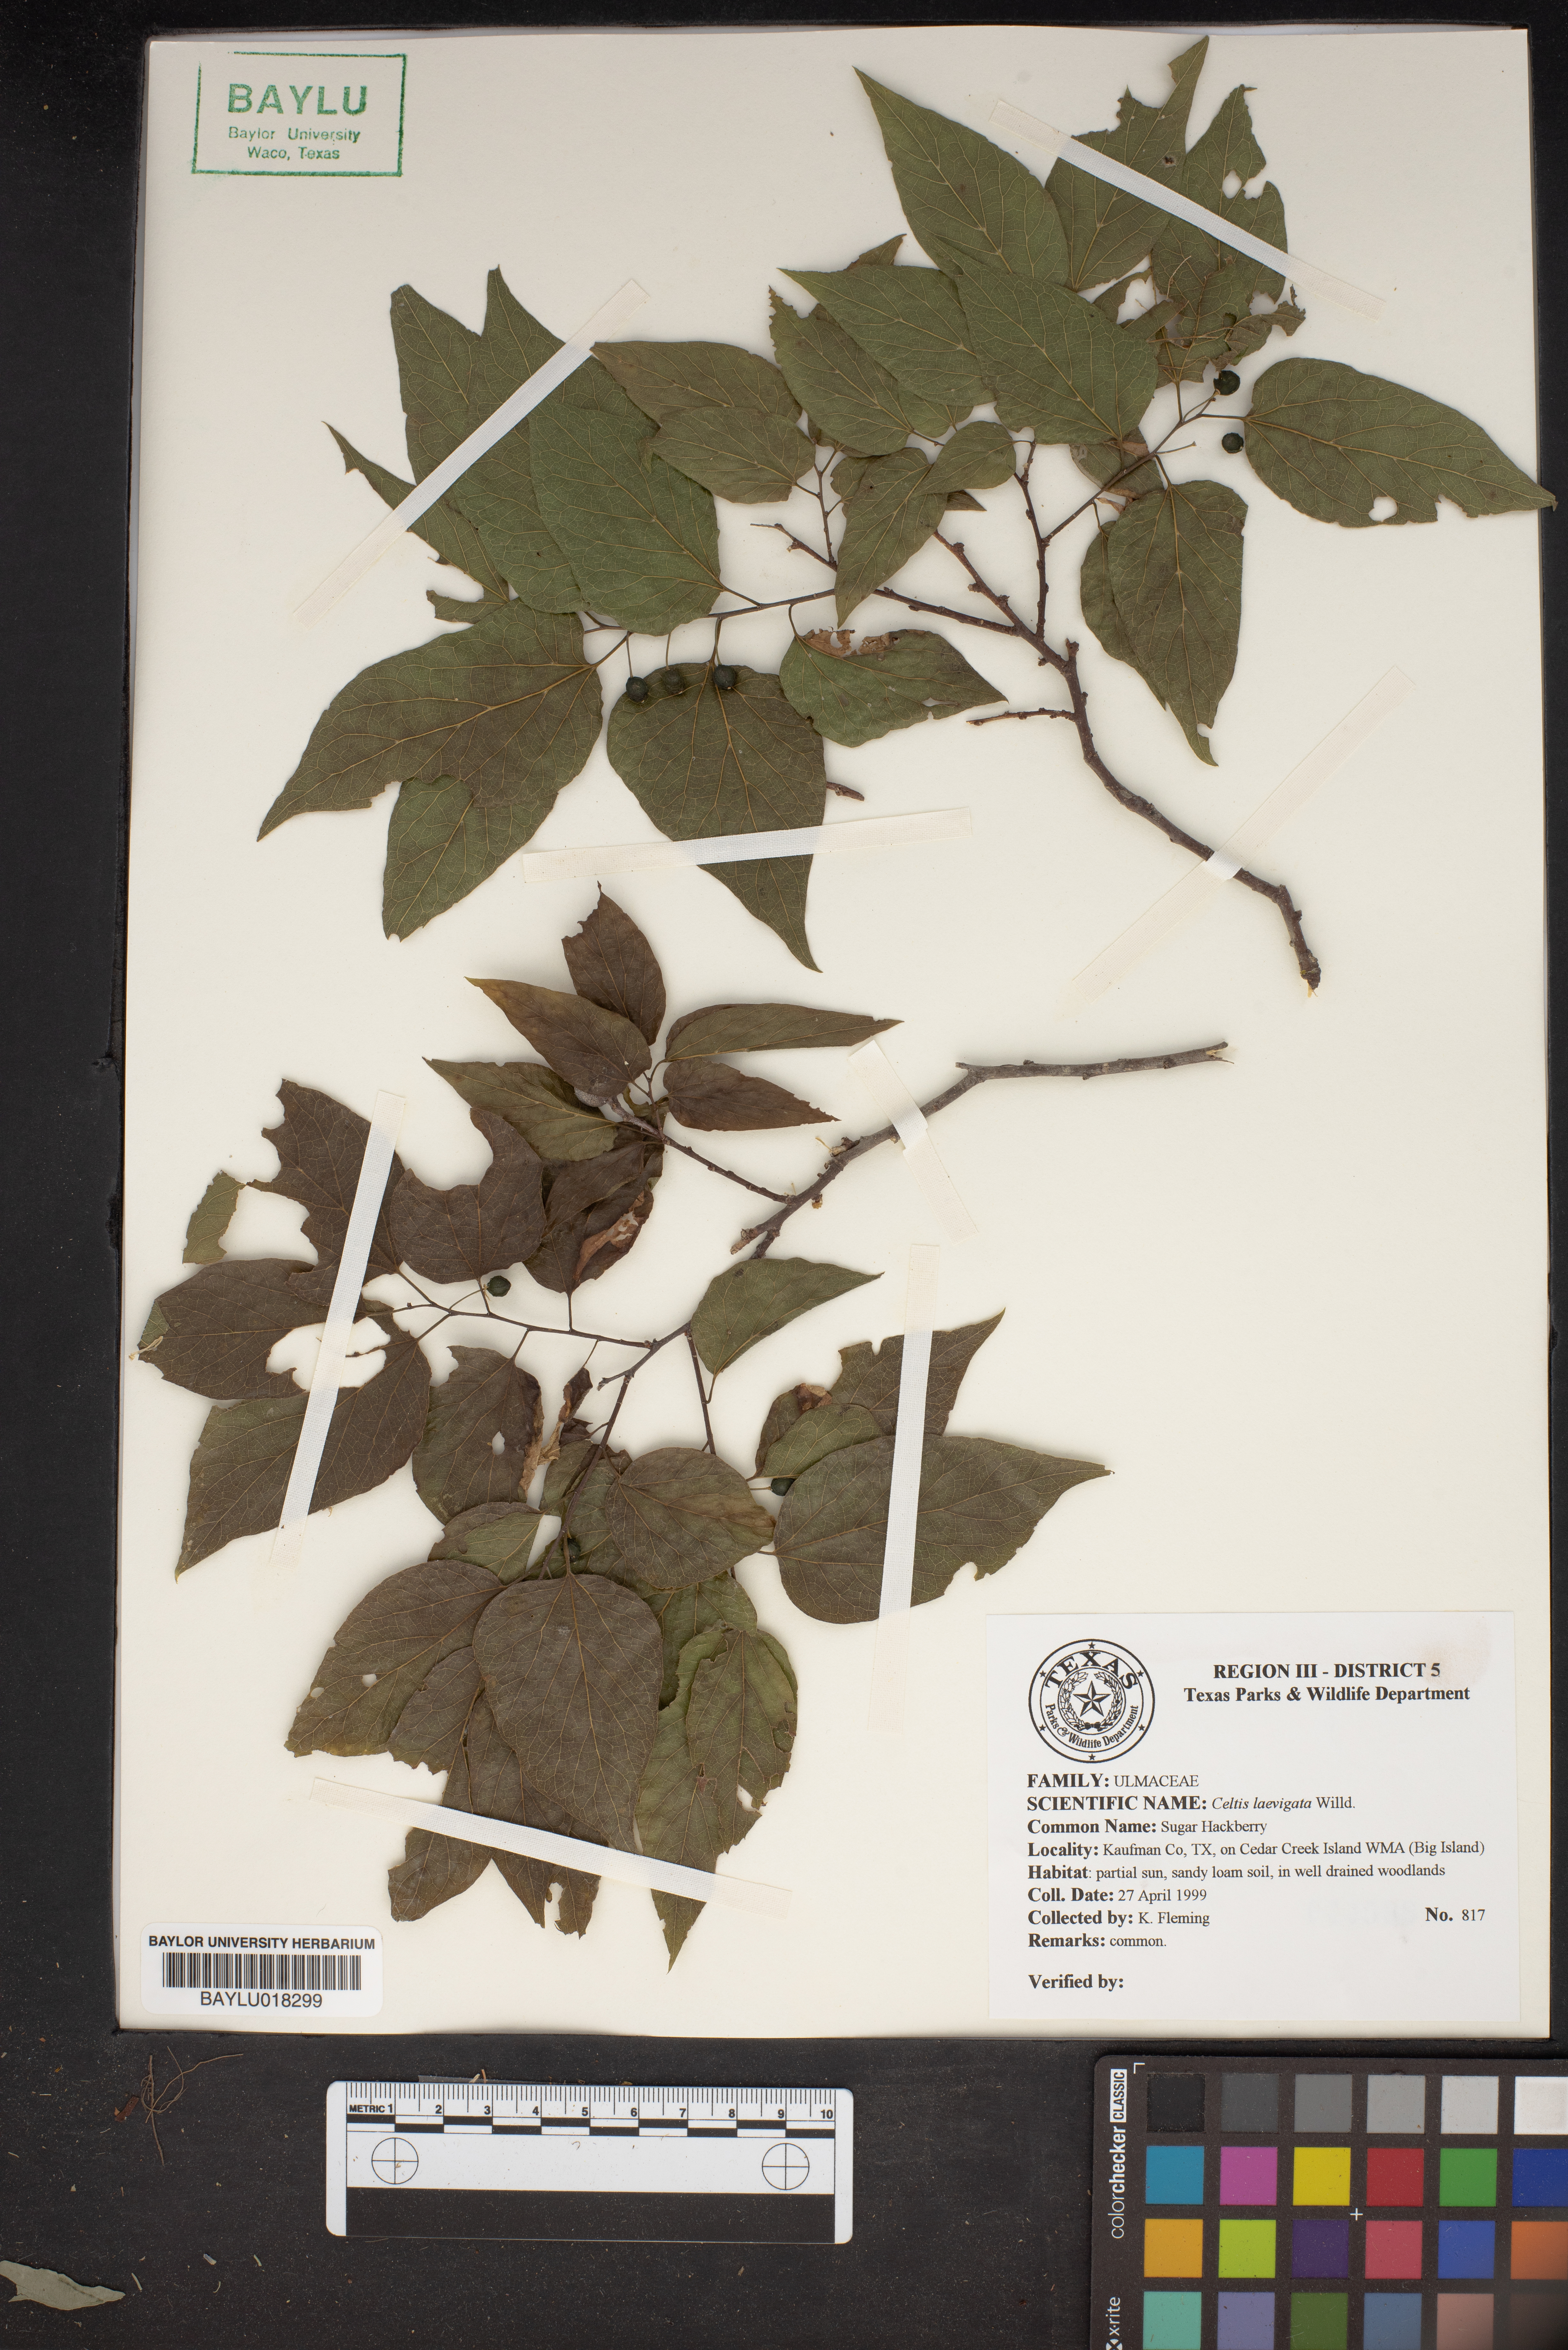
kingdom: Plantae
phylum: Tracheophyta
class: Magnoliopsida
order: Rosales
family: Cannabaceae
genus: Celtis
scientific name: Celtis laevigata
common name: Sugarberry
